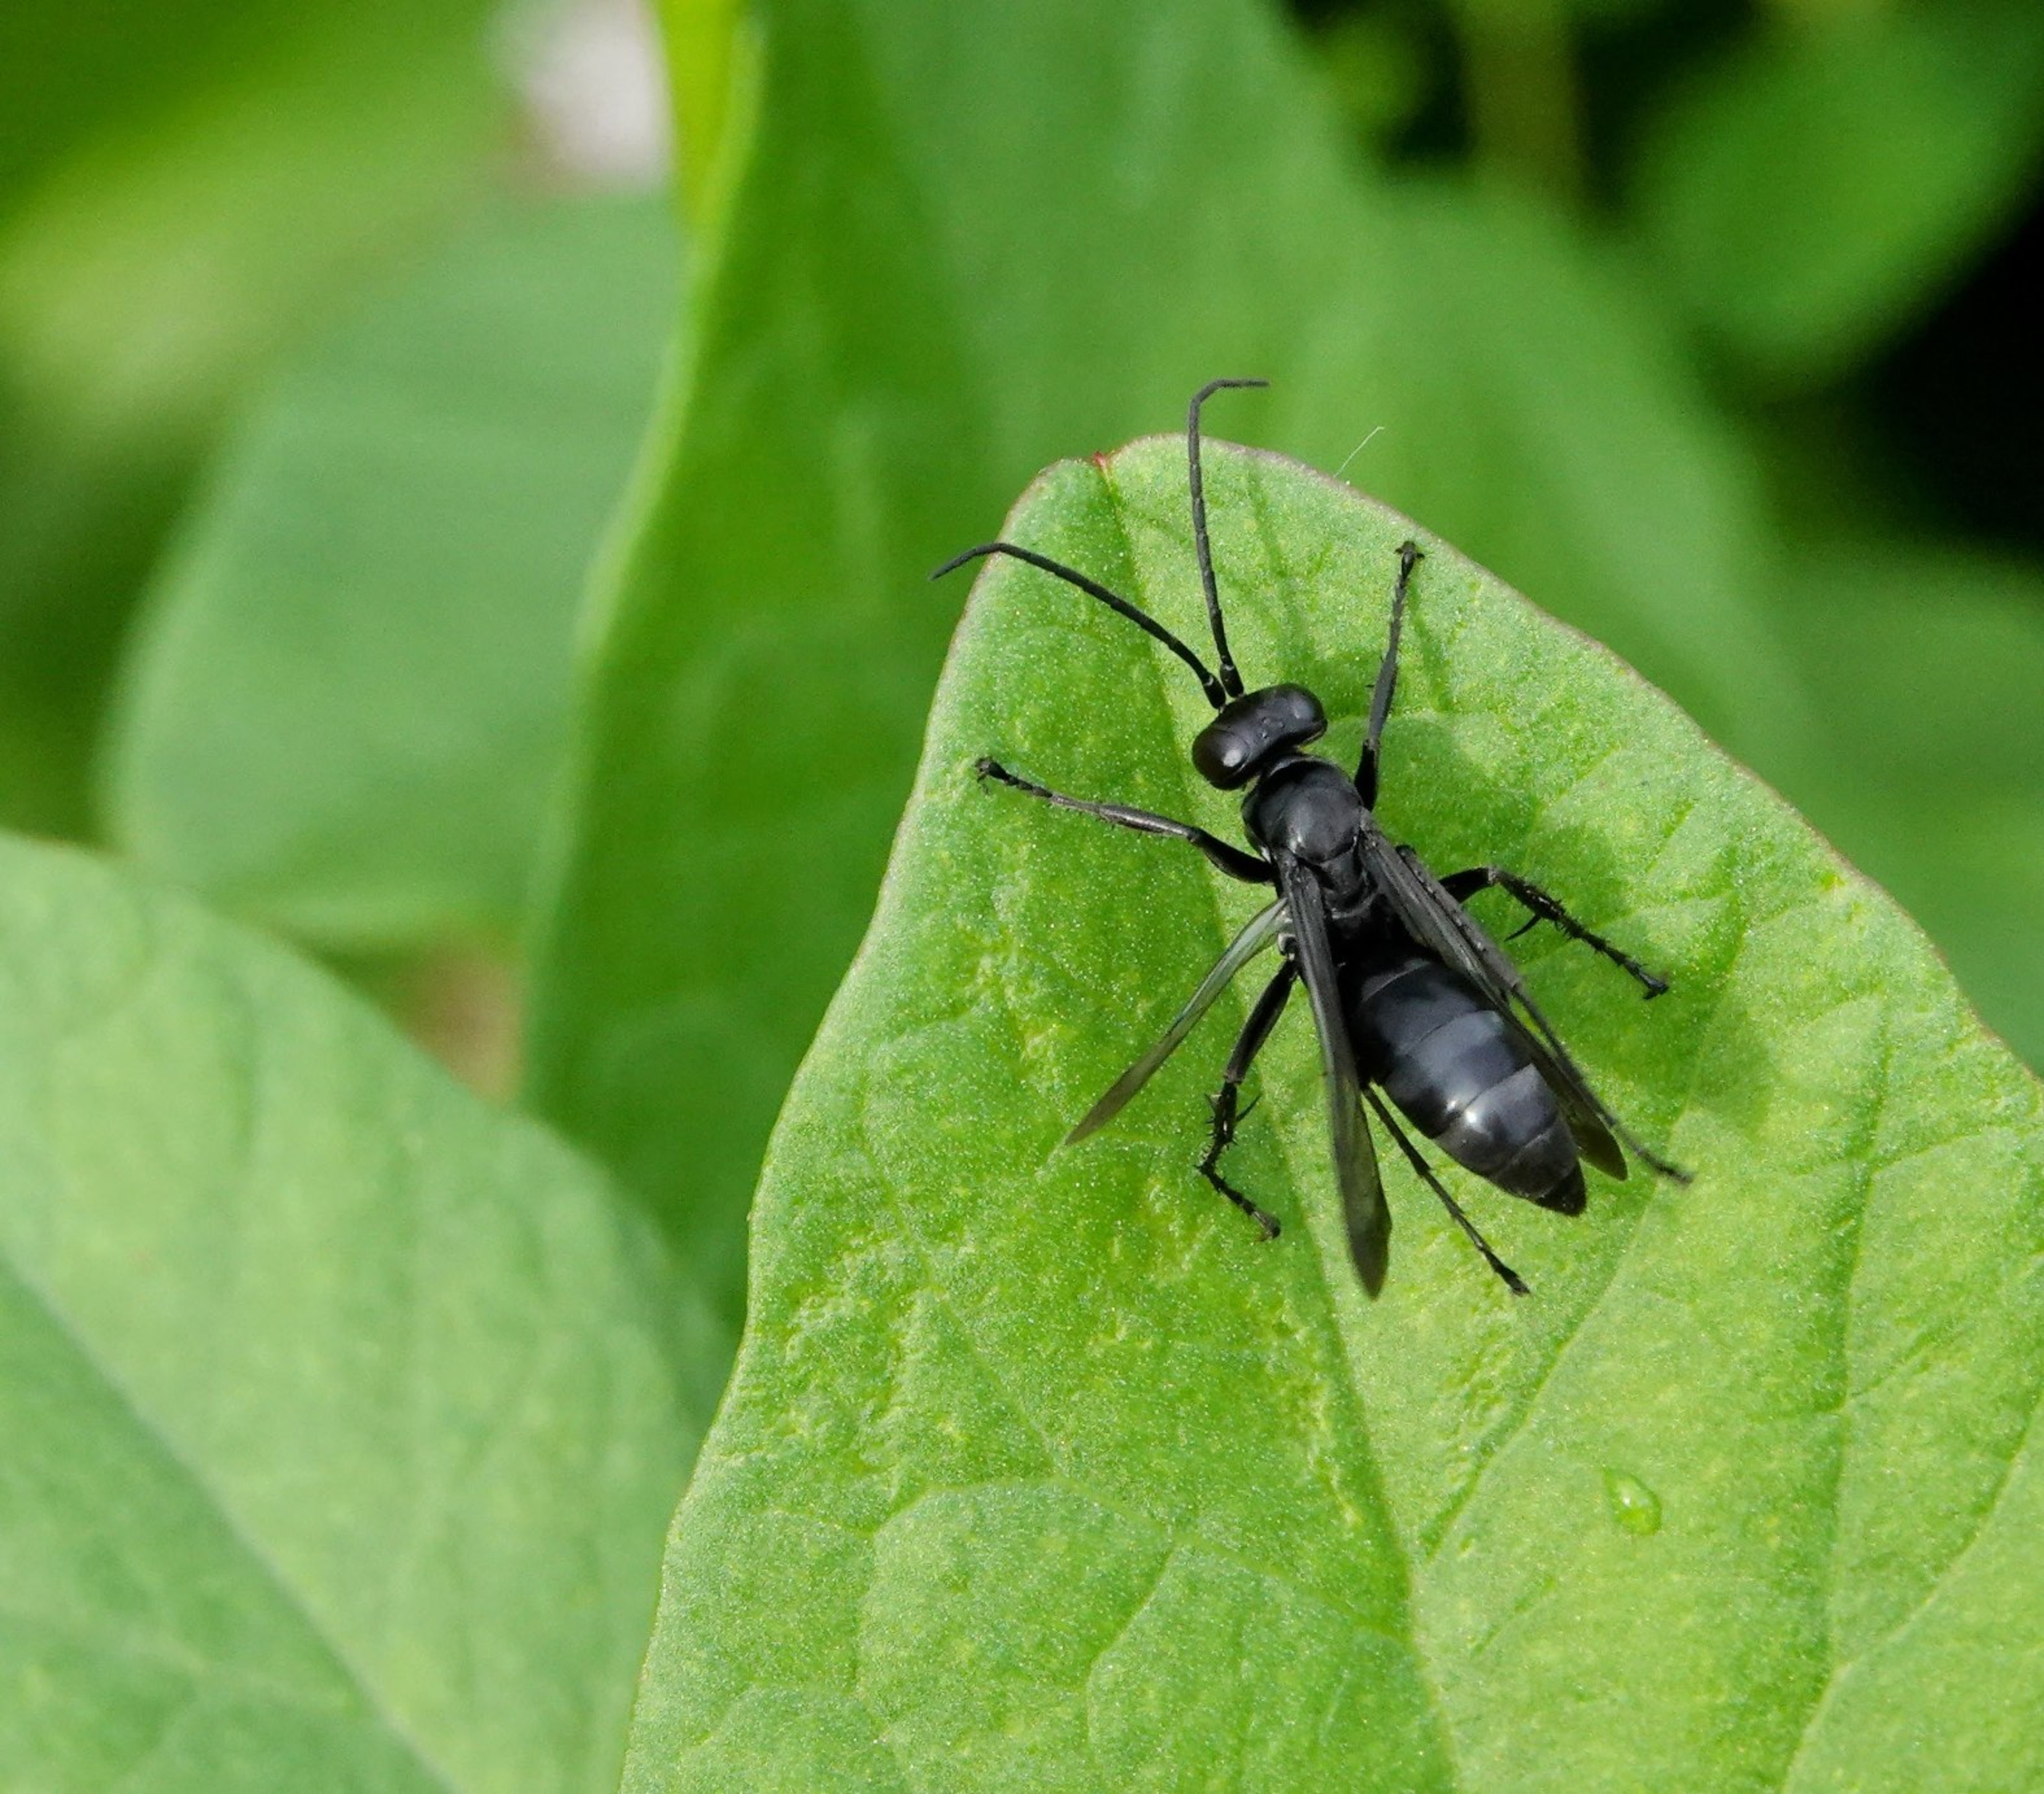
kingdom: Animalia
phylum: Arthropoda
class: Insecta
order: Hymenoptera
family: Pompilidae
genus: Anoplius
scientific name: Anoplius
